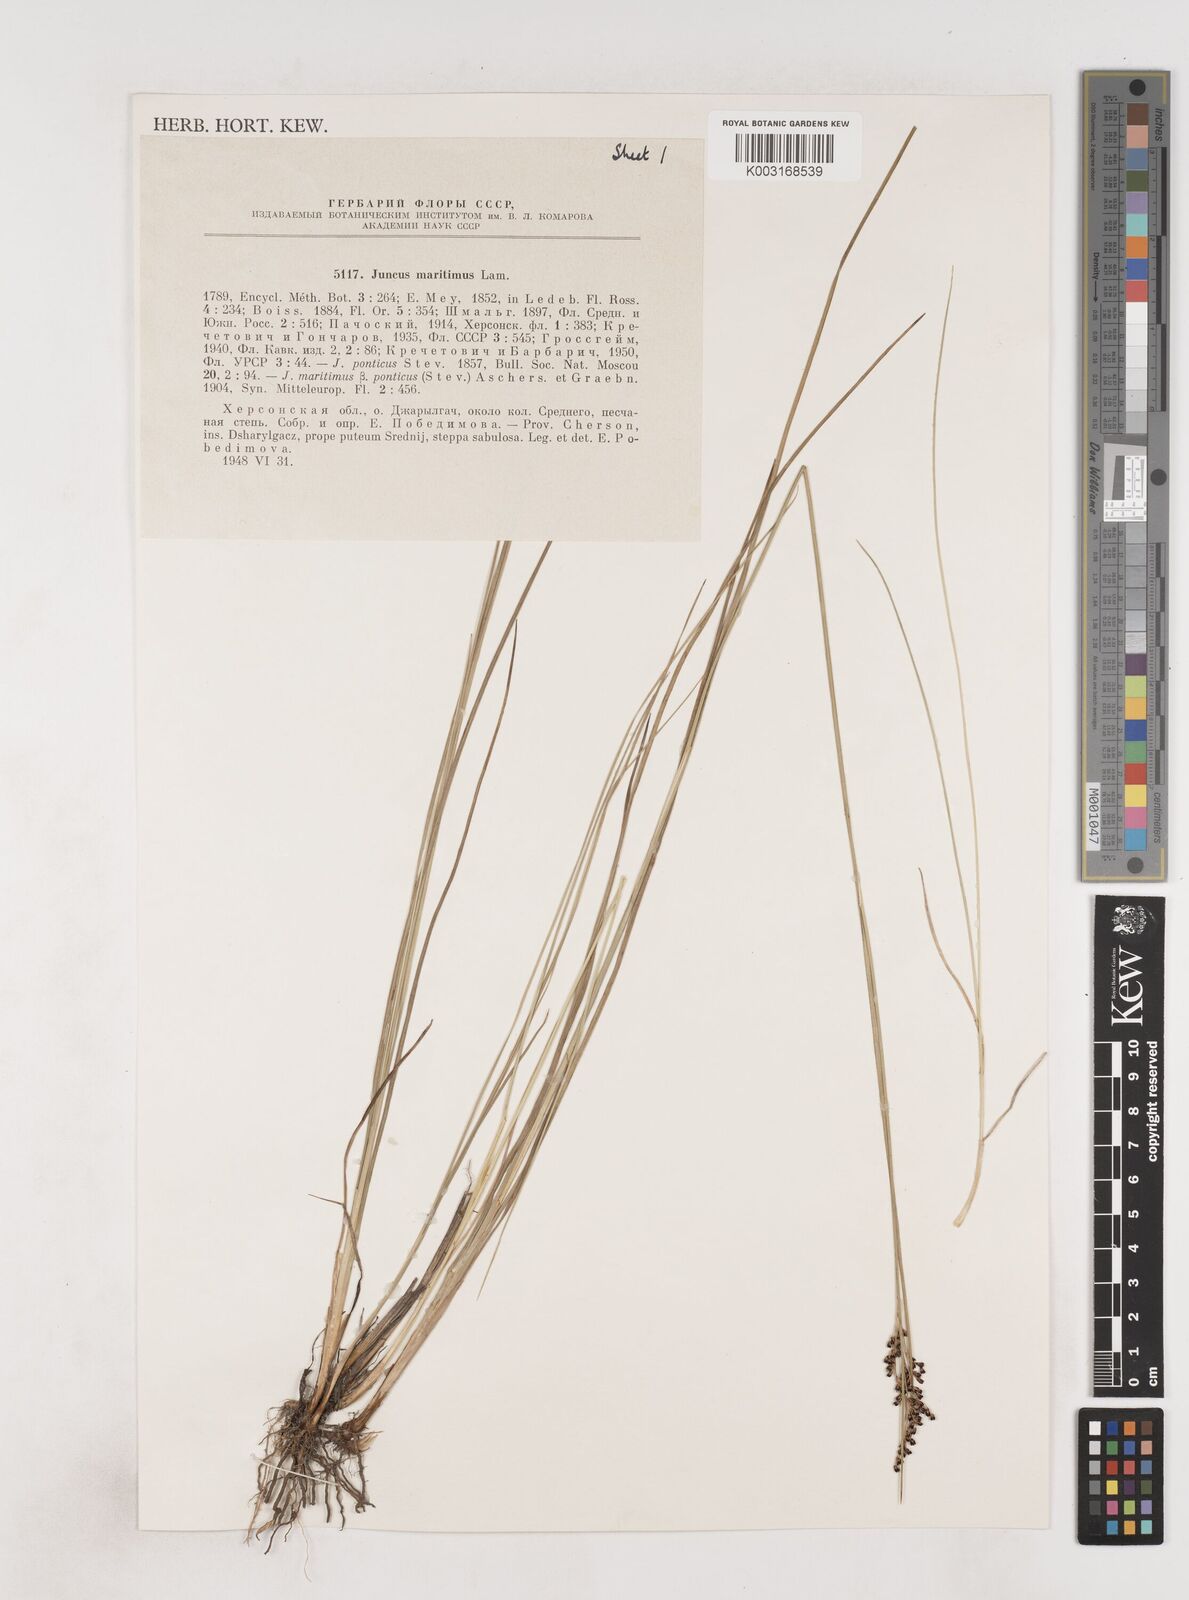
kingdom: Plantae
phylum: Tracheophyta
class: Liliopsida
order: Poales
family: Juncaceae
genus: Juncus
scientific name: Juncus maritimus
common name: Sea rush
